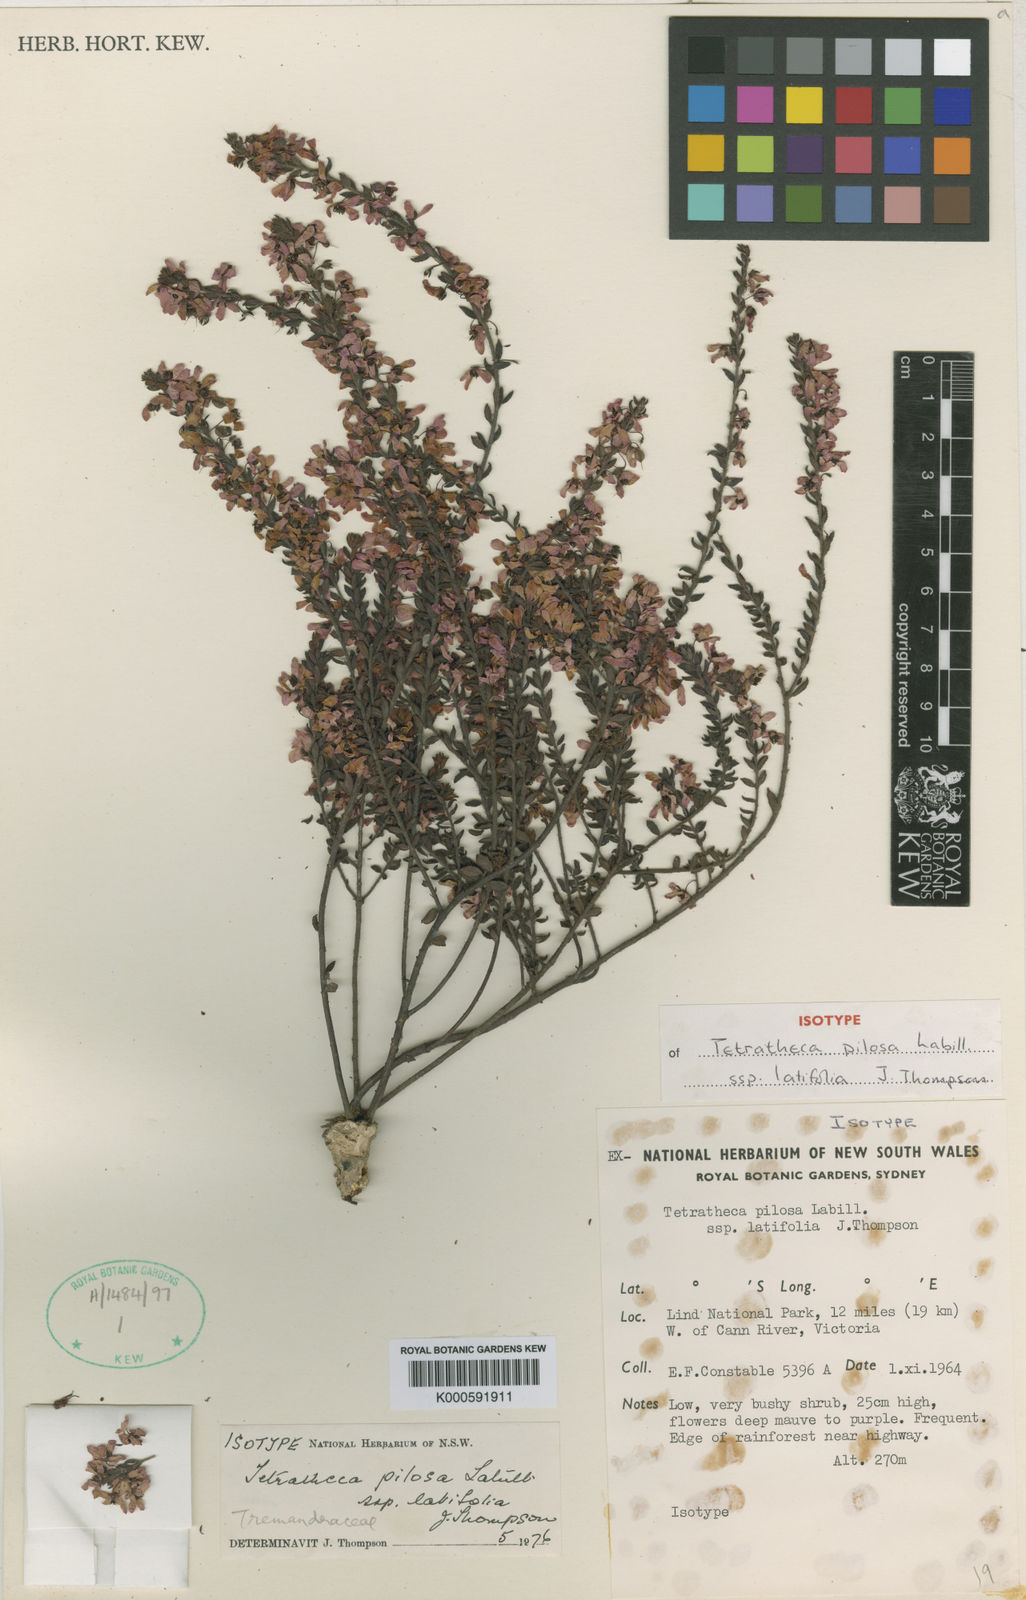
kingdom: Plantae
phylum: Tracheophyta
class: Magnoliopsida
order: Oxalidales
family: Elaeocarpaceae
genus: Tetratheca
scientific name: Tetratheca pilosa
